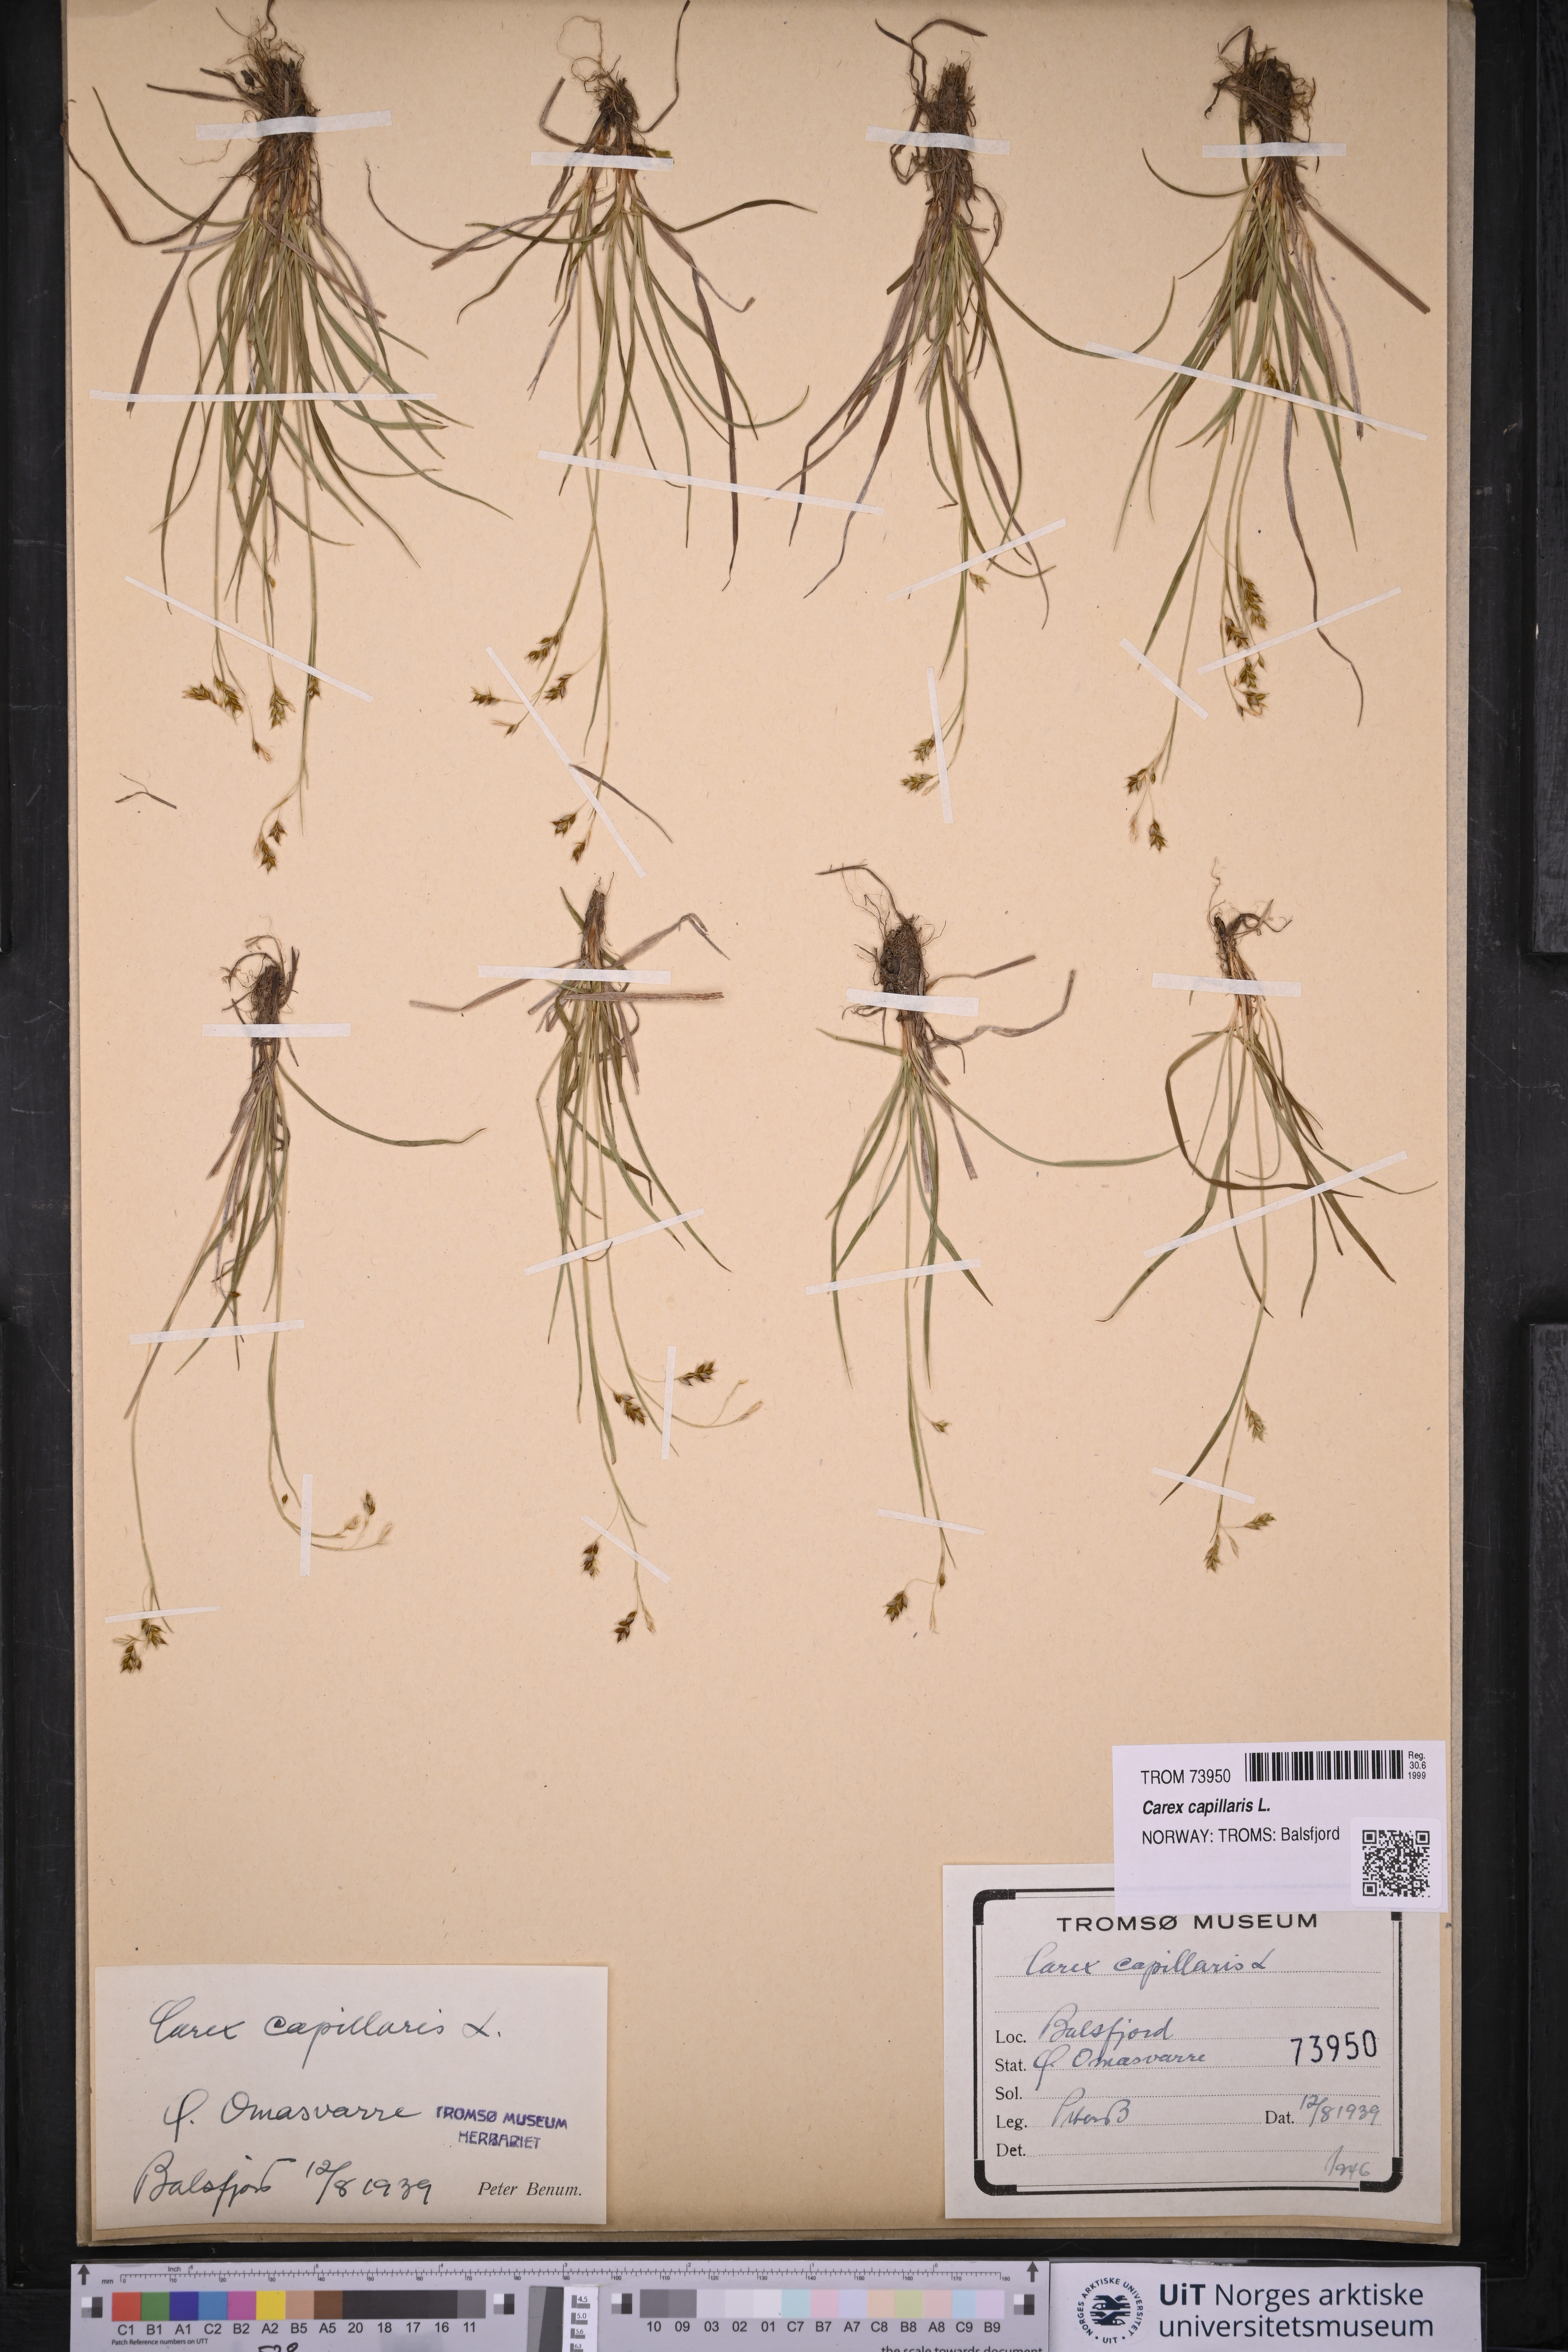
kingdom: Plantae
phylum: Tracheophyta
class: Liliopsida
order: Poales
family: Cyperaceae
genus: Carex
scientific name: Carex capillaris
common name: Hair sedge
